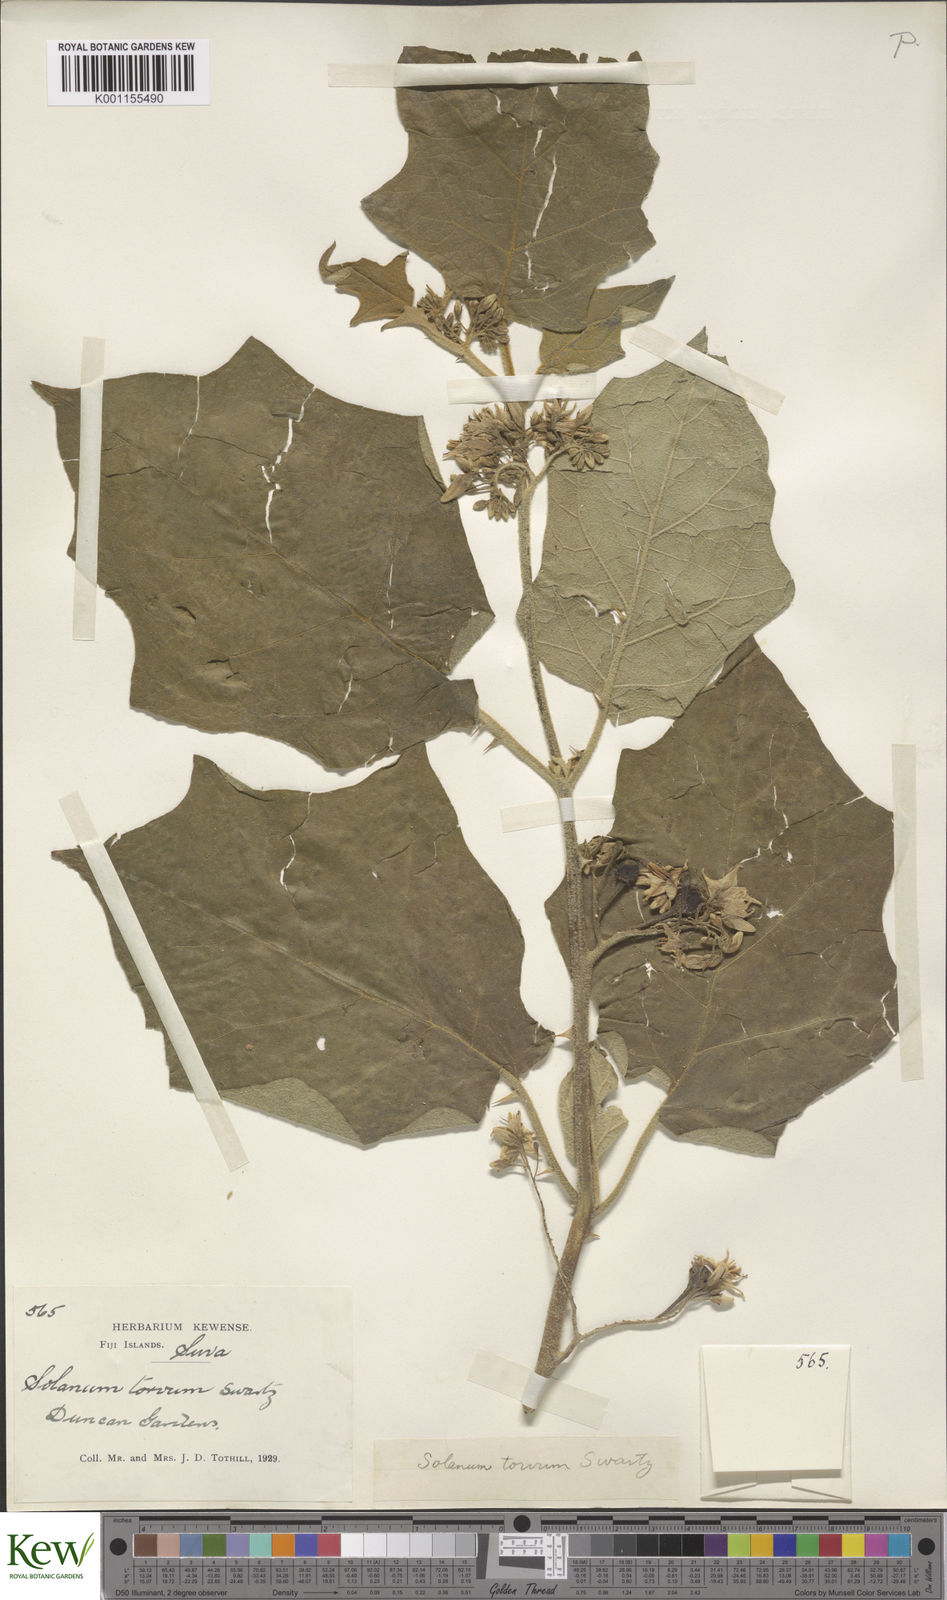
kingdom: Plantae
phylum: Tracheophyta
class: Magnoliopsida
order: Solanales
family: Solanaceae
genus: Solanum
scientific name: Solanum torvum
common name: Turkey berry
